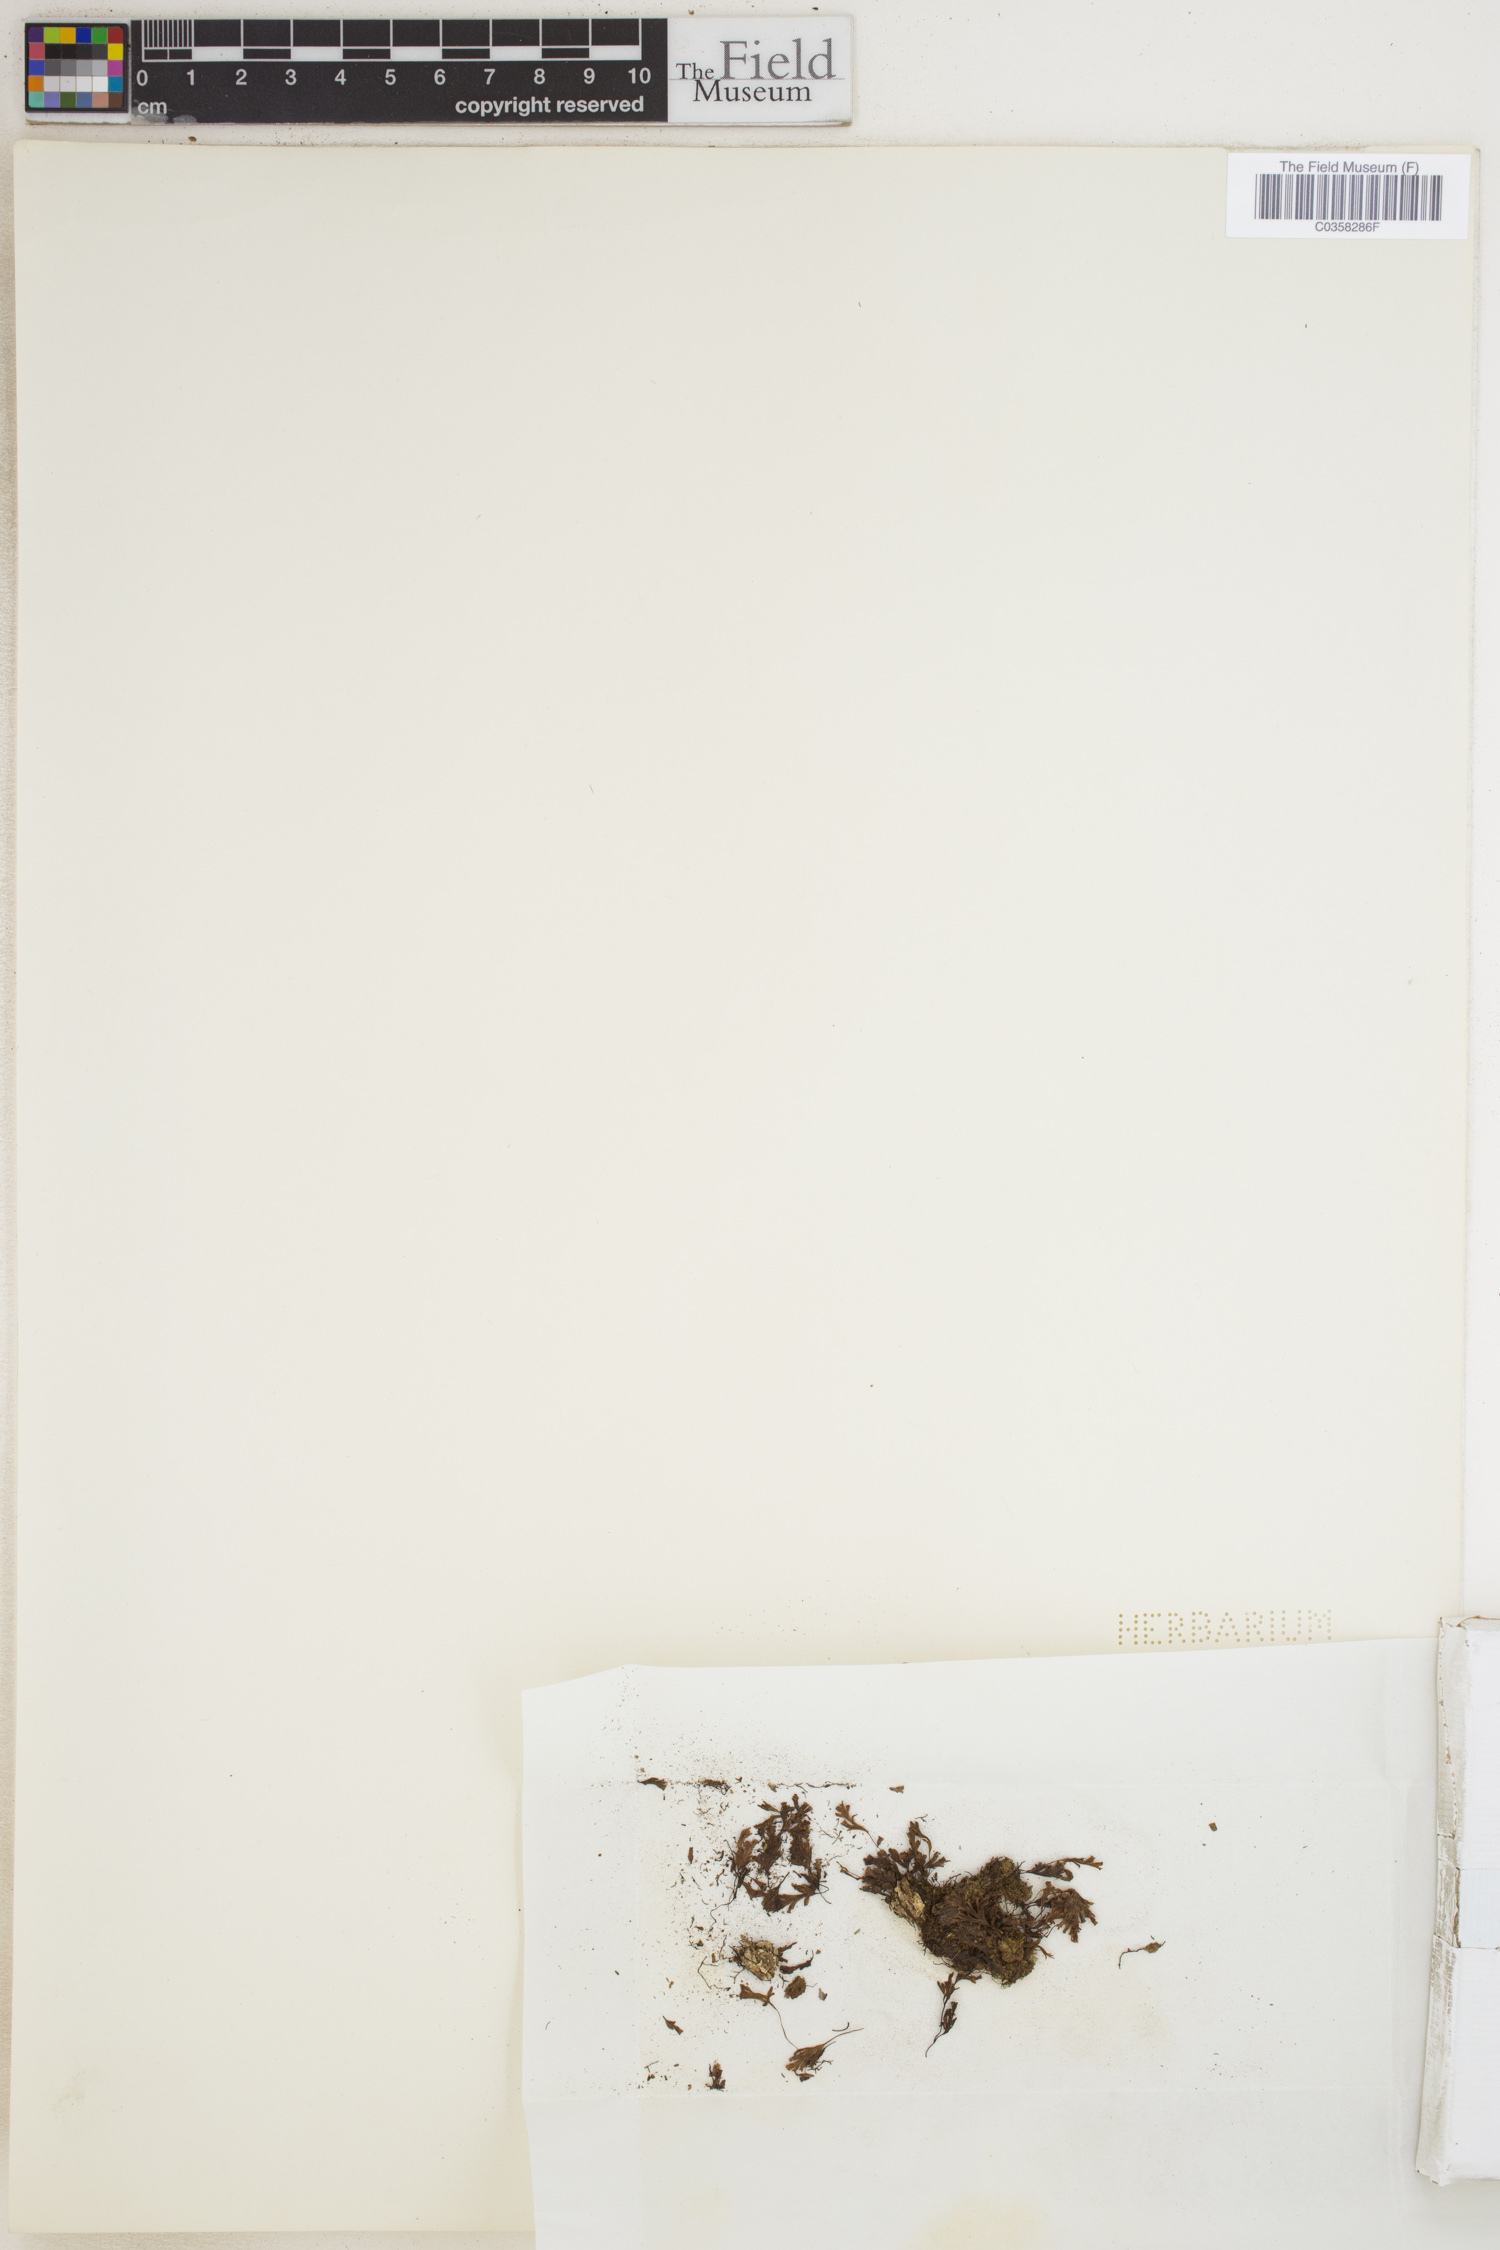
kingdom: Plantae
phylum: Tracheophyta
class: Polypodiopsida
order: Hymenophyllales
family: Hymenophyllaceae
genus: Didymoglossum
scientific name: Didymoglossum bimarginatum
